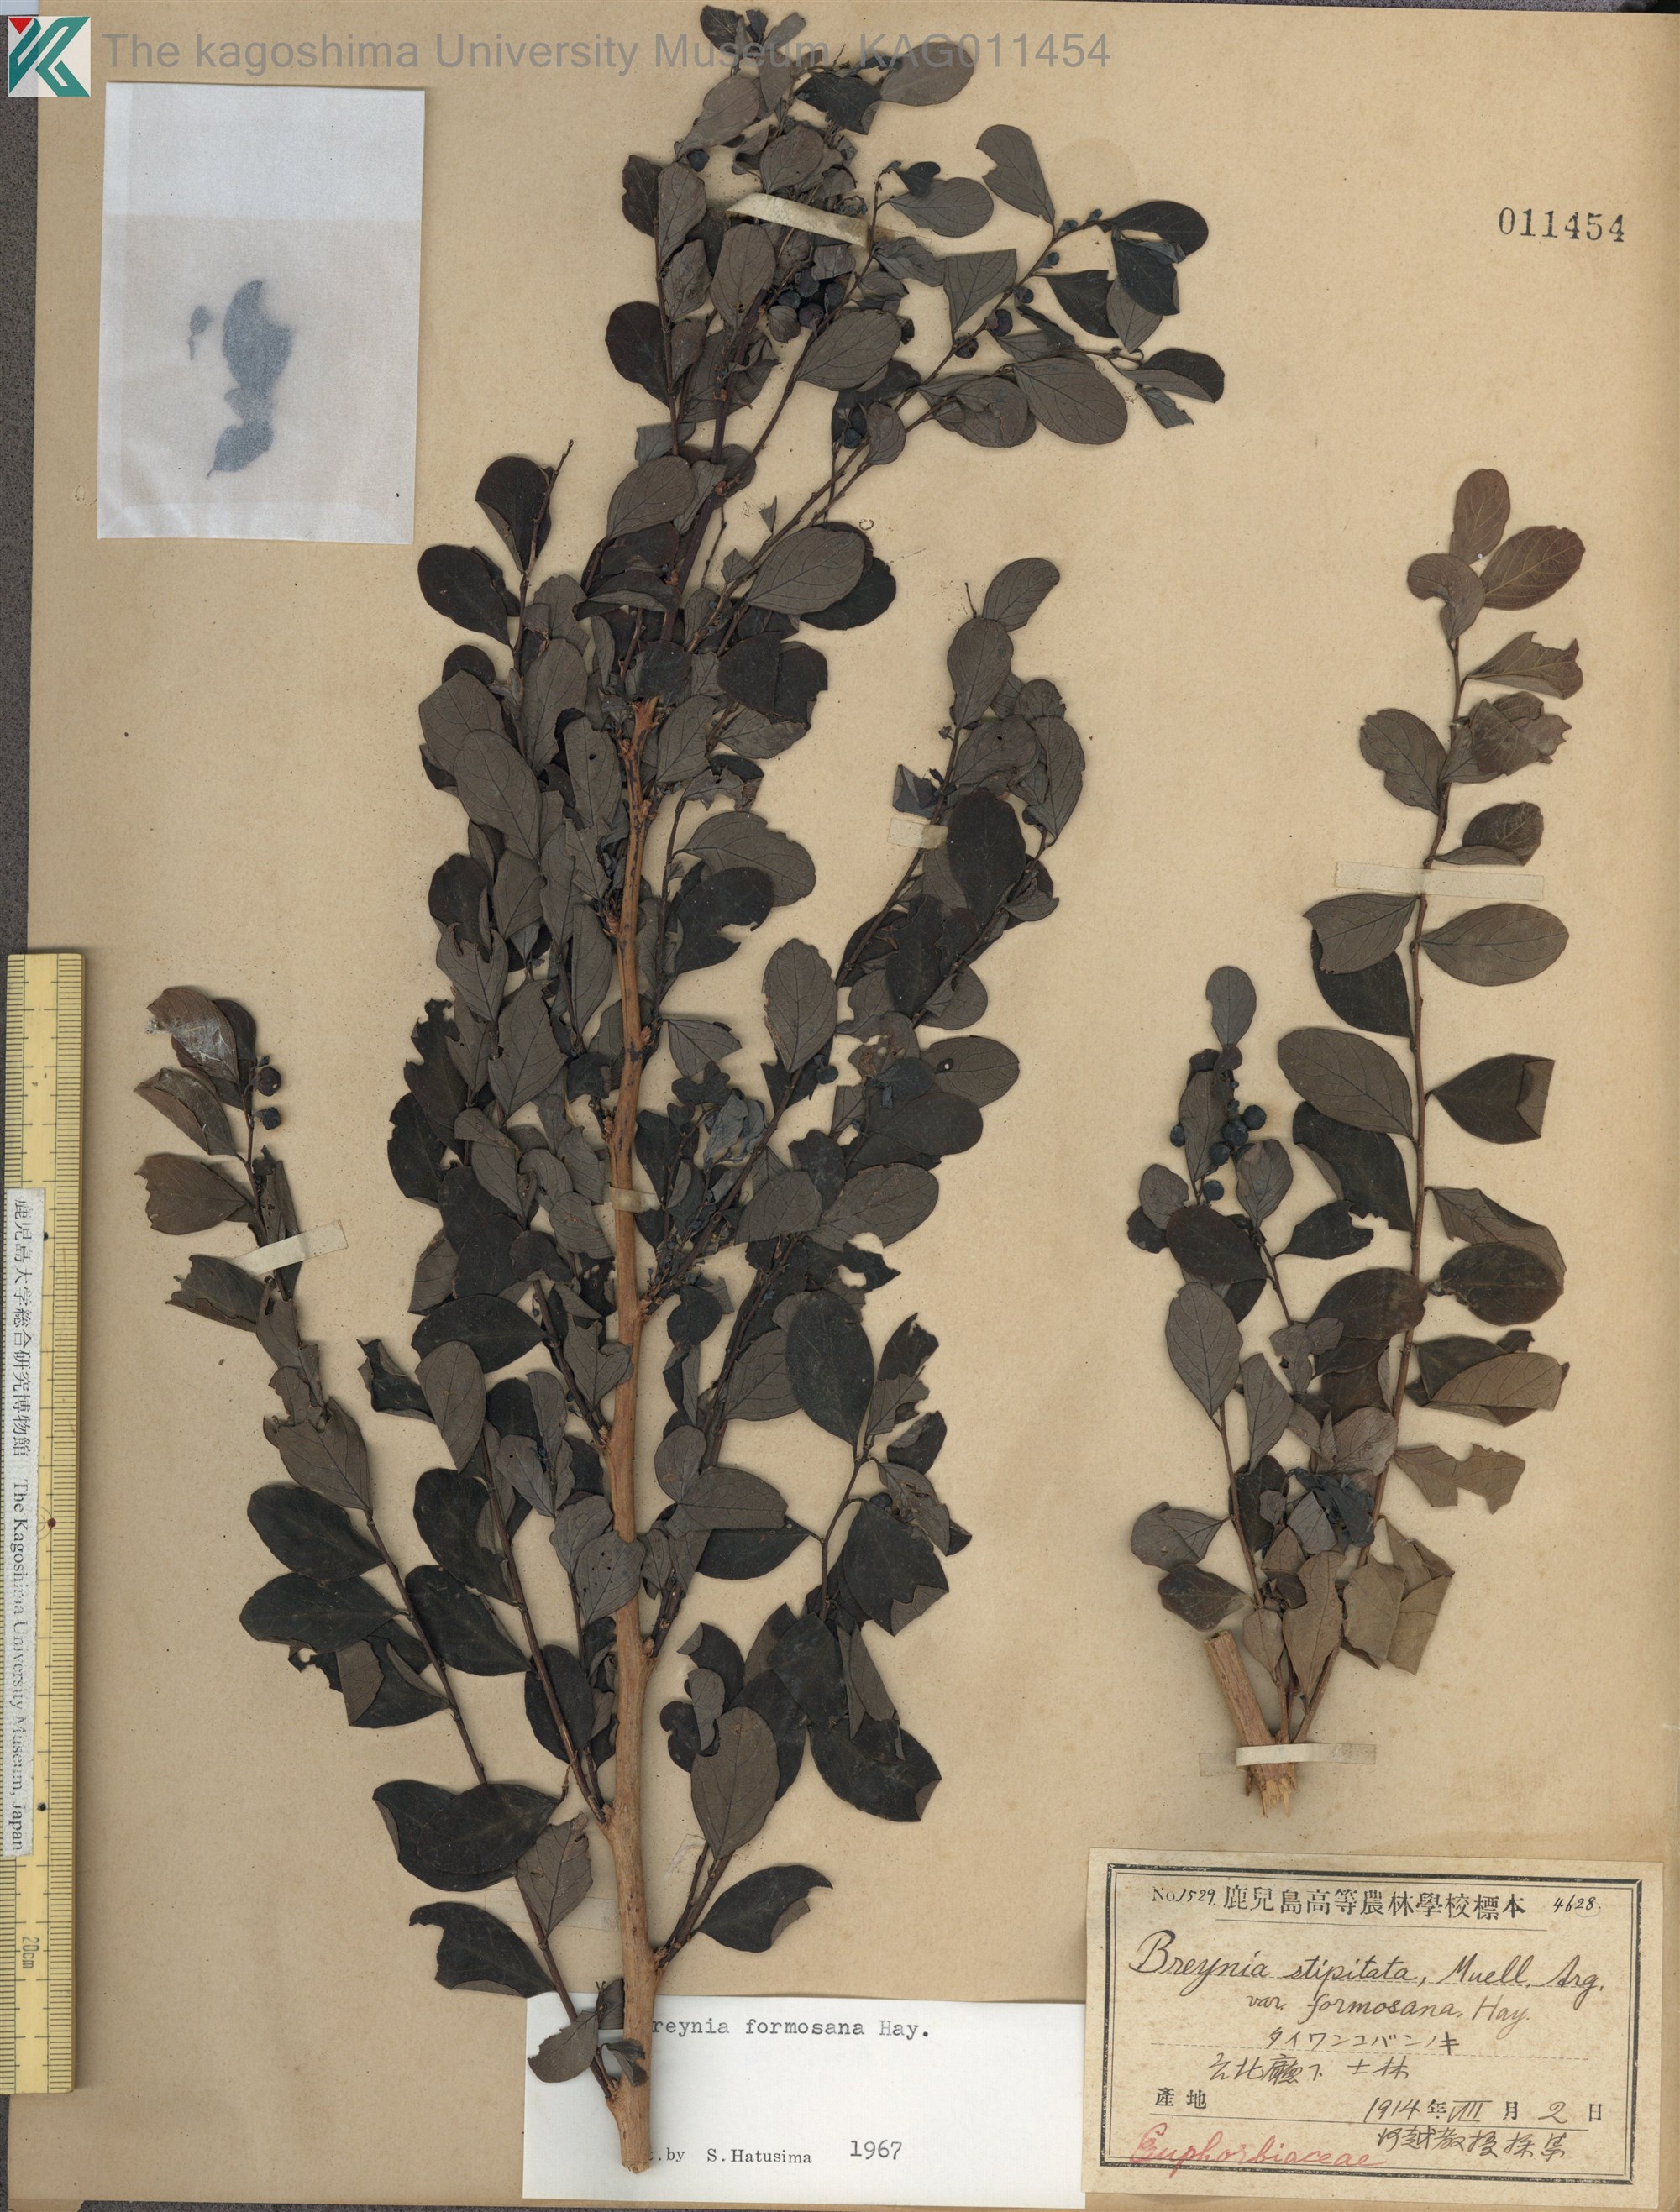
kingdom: Plantae
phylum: Tracheophyta
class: Magnoliopsida
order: Malpighiales
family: Phyllanthaceae
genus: Breynia
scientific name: Breynia officinalis
